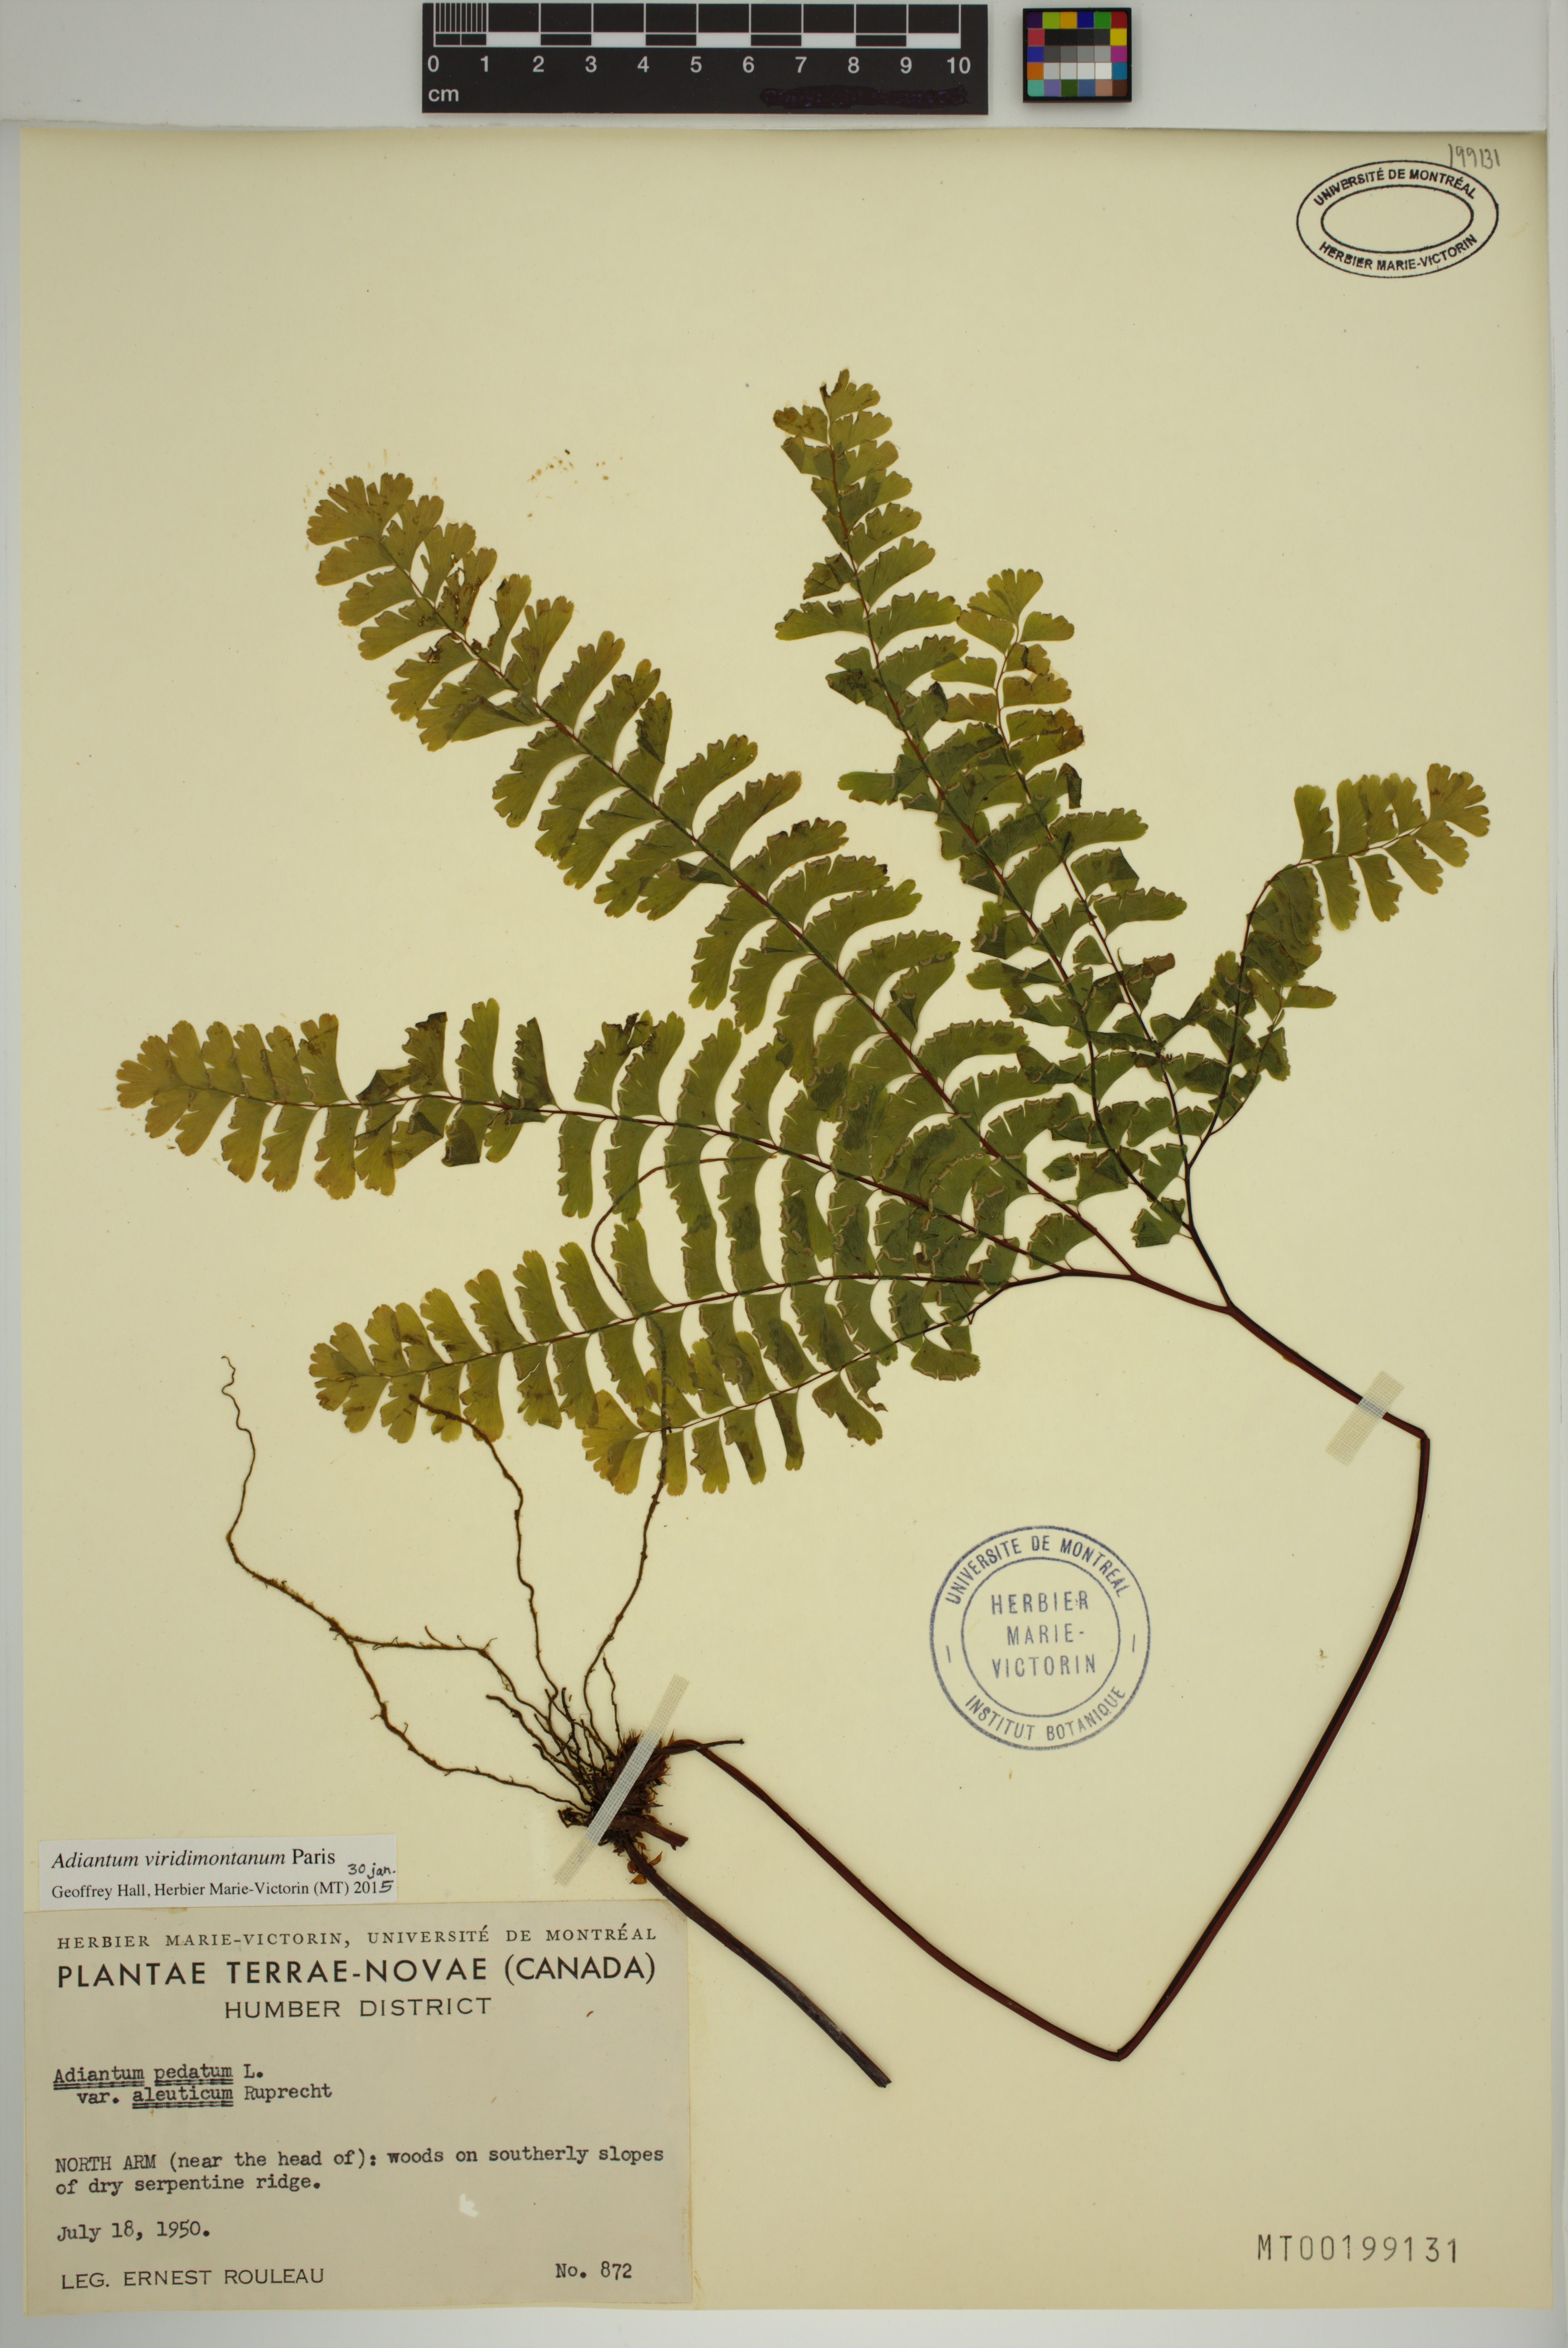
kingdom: Plantae
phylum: Tracheophyta
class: Polypodiopsida
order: Polypodiales
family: Pteridaceae
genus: Adiantum
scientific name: Adiantum viridimontanum
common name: Green mountain maidenhair
